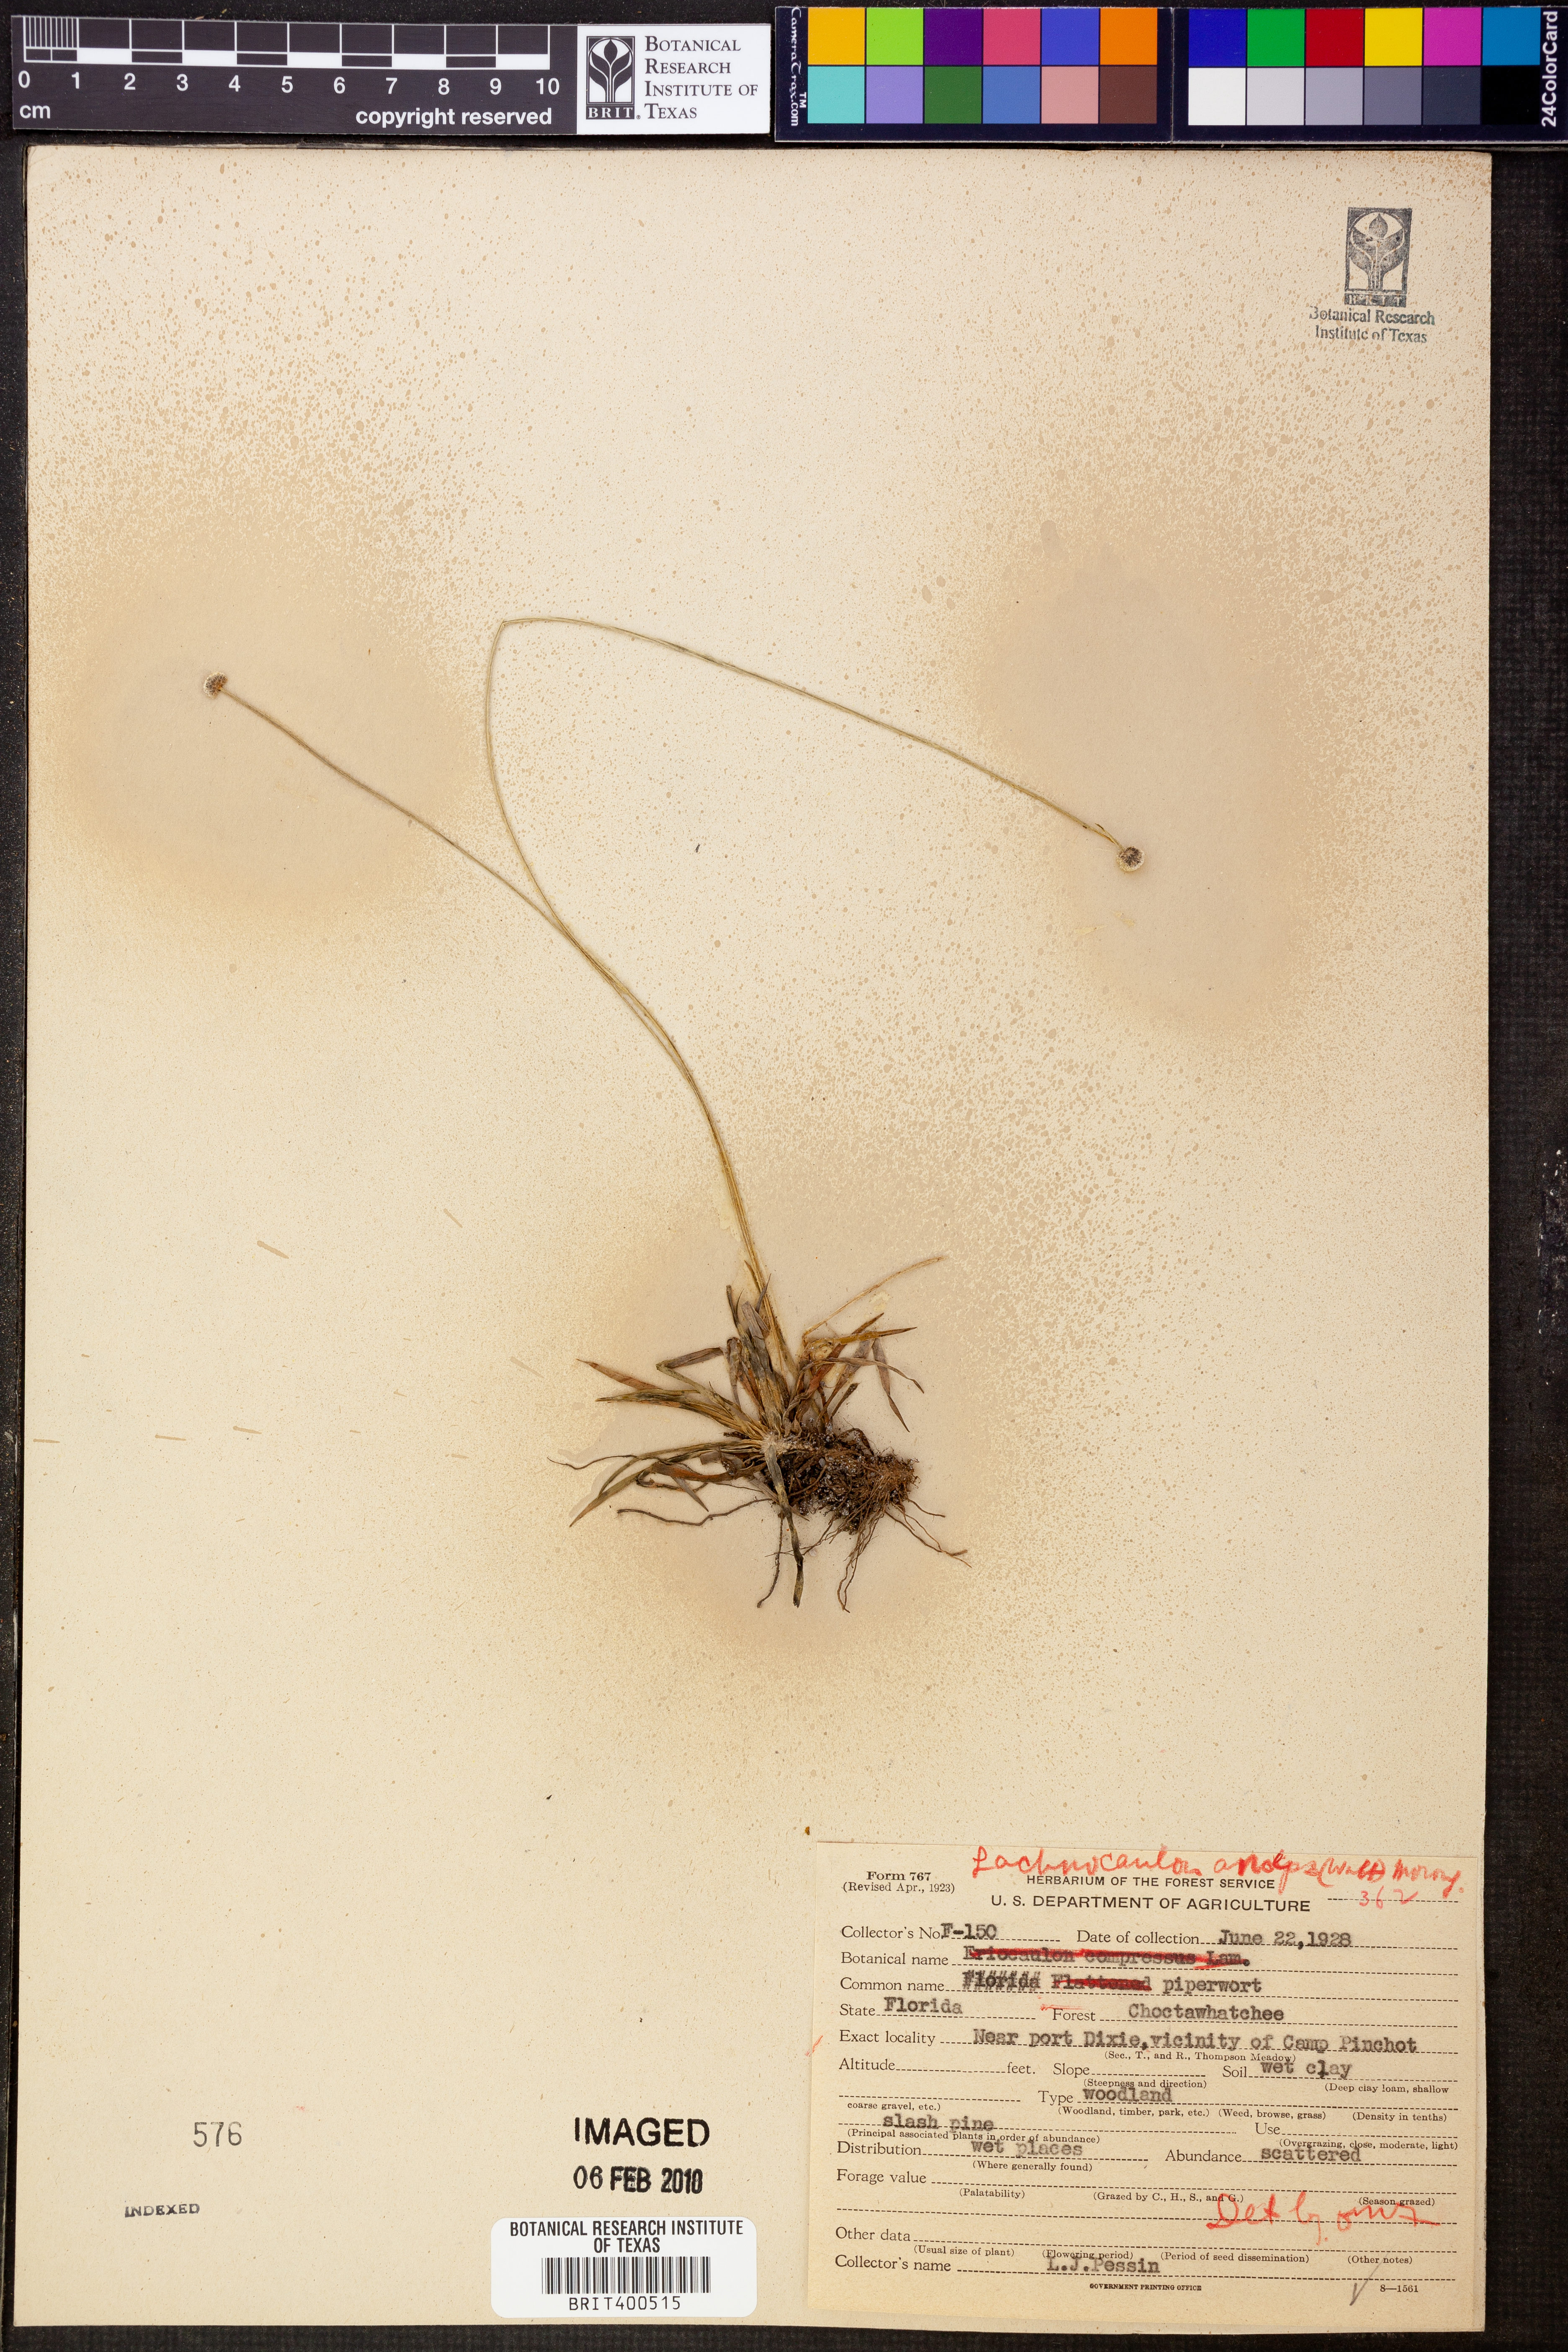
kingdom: Plantae
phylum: Tracheophyta
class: Liliopsida
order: Poales
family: Eriocaulaceae
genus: Paepalanthus
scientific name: Paepalanthus anceps
